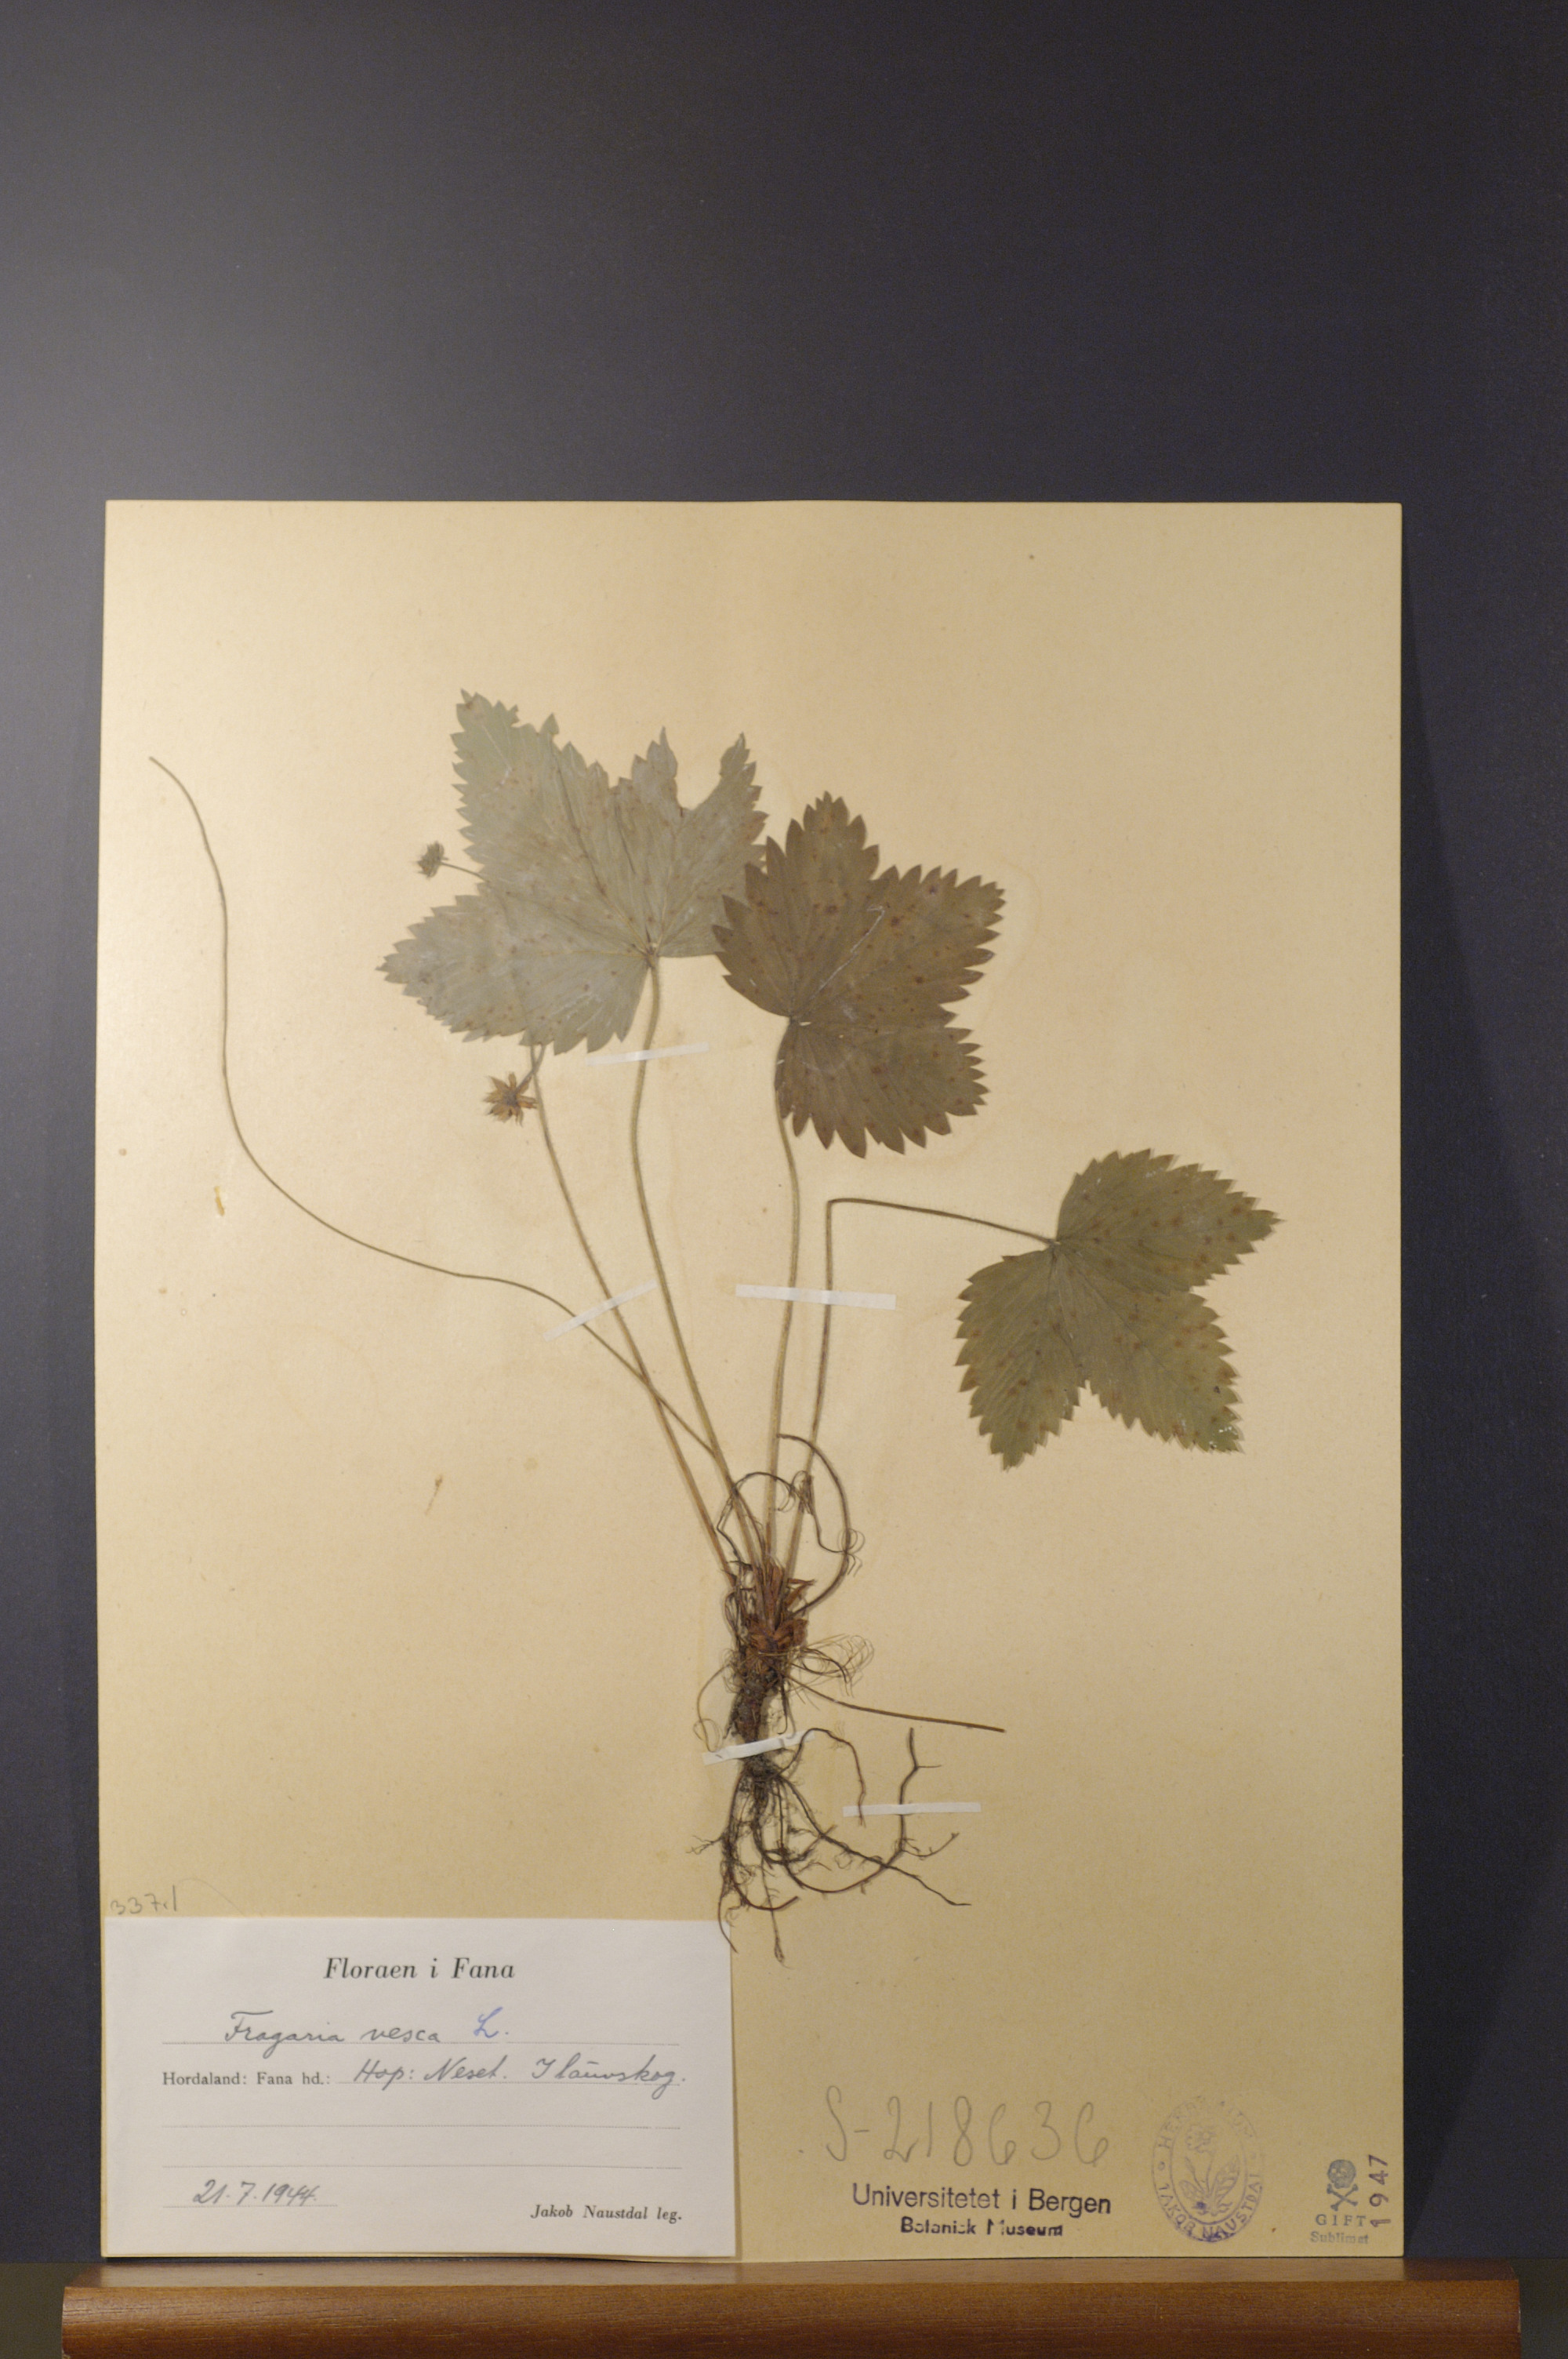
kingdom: Plantae
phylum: Tracheophyta
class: Magnoliopsida
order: Rosales
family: Rosaceae
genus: Fragaria
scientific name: Fragaria vesca
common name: Wild strawberry
